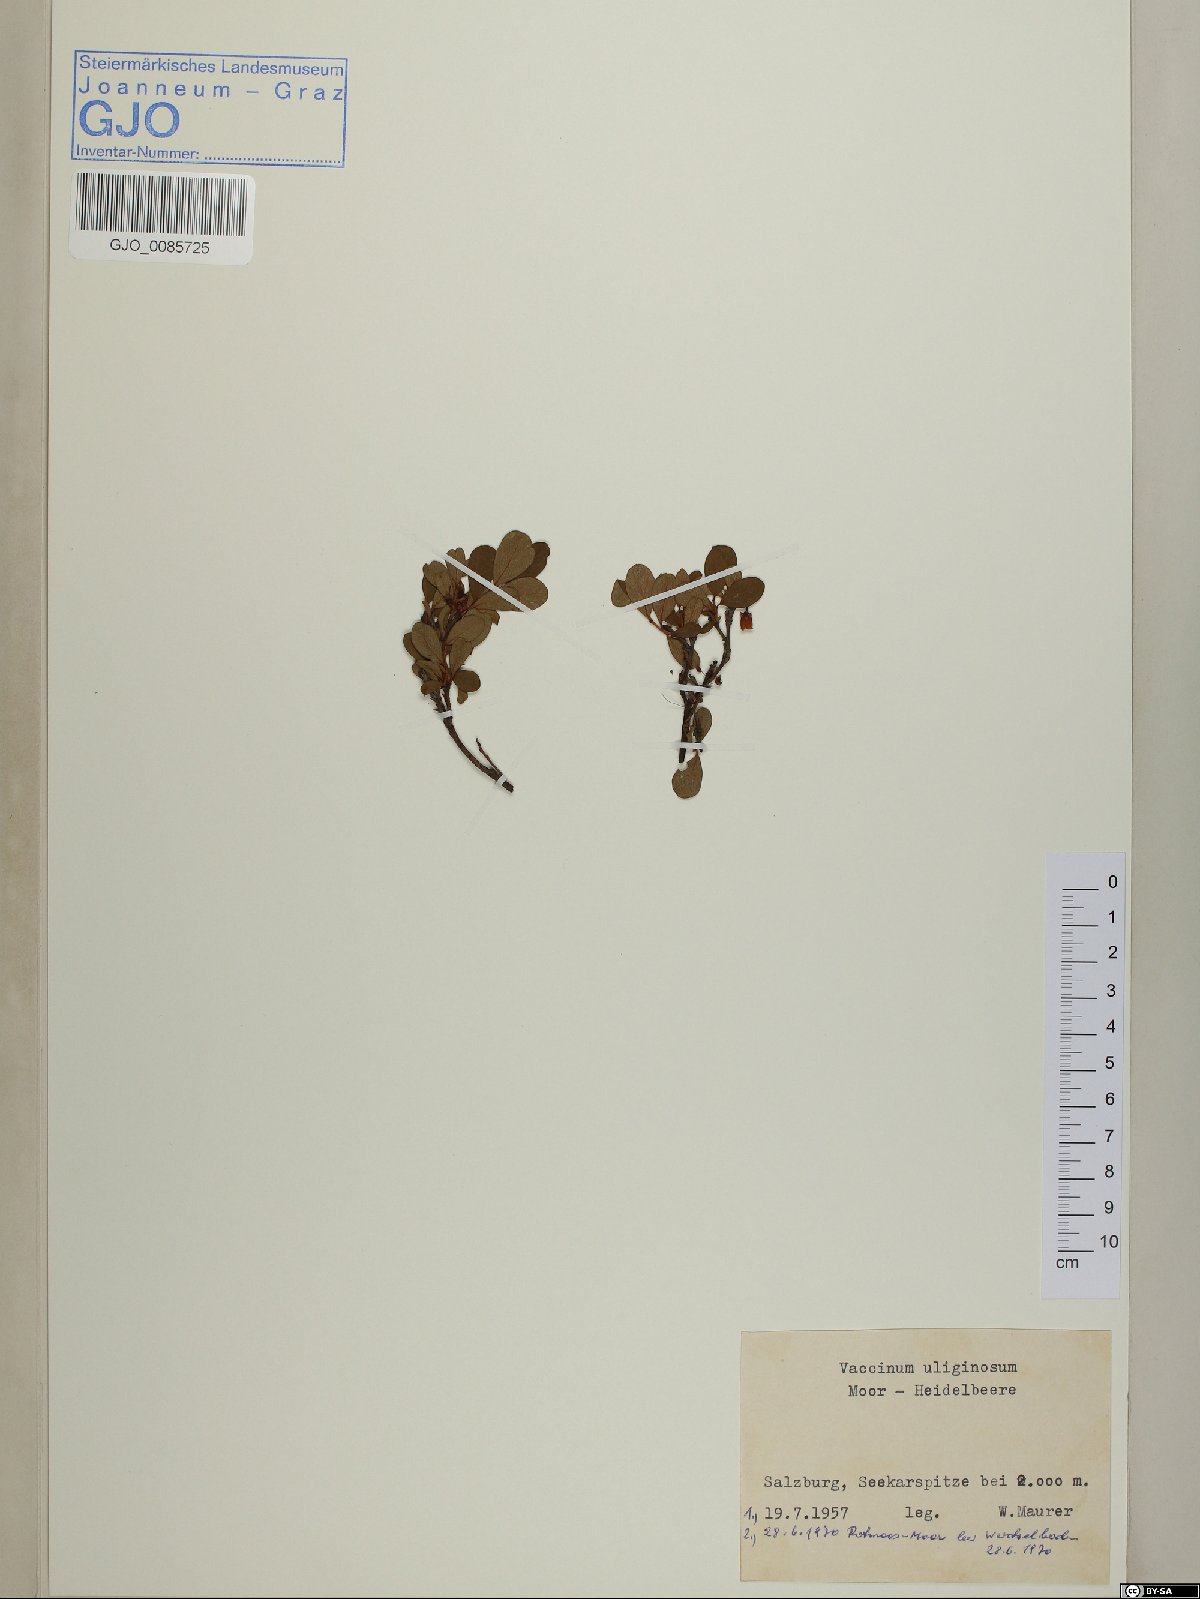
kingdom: Plantae
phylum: Tracheophyta
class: Magnoliopsida
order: Ericales
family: Ericaceae
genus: Vaccinium
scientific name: Vaccinium gaultherioides
